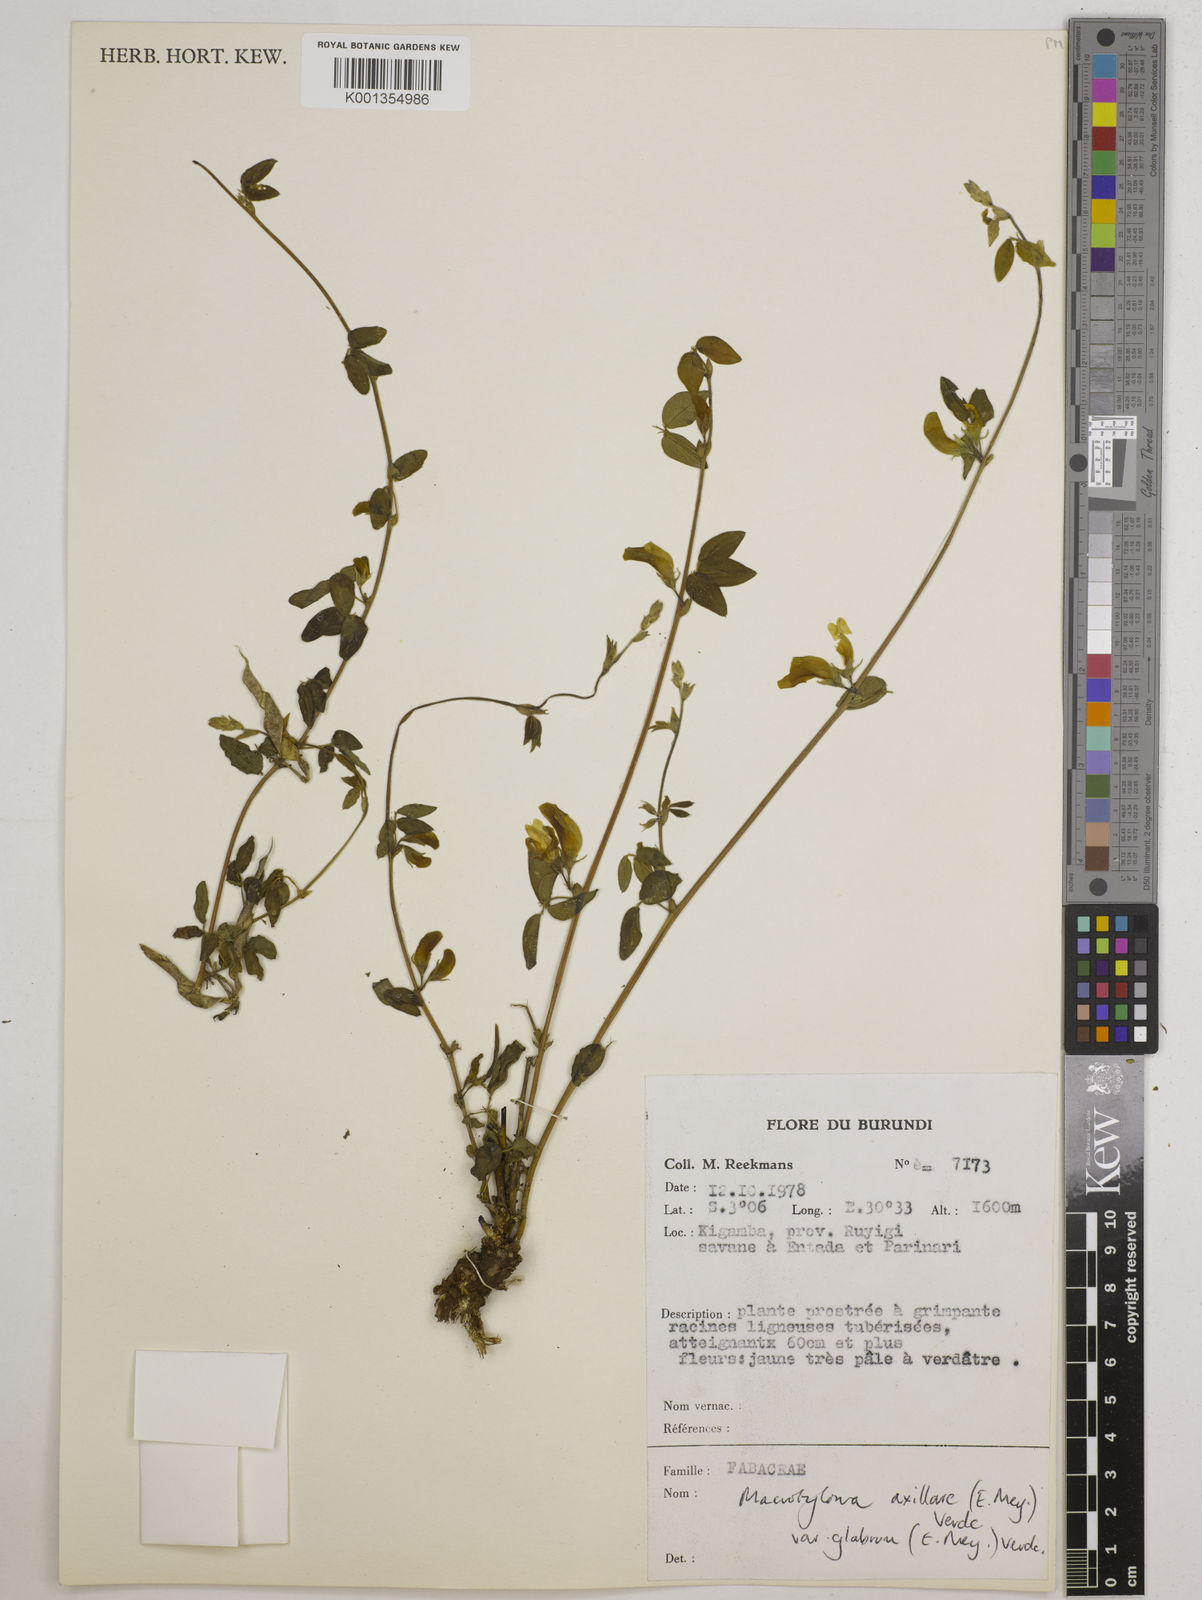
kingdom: Plantae
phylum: Tracheophyta
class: Magnoliopsida
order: Fabales
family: Fabaceae
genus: Macrotyloma
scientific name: Macrotyloma
